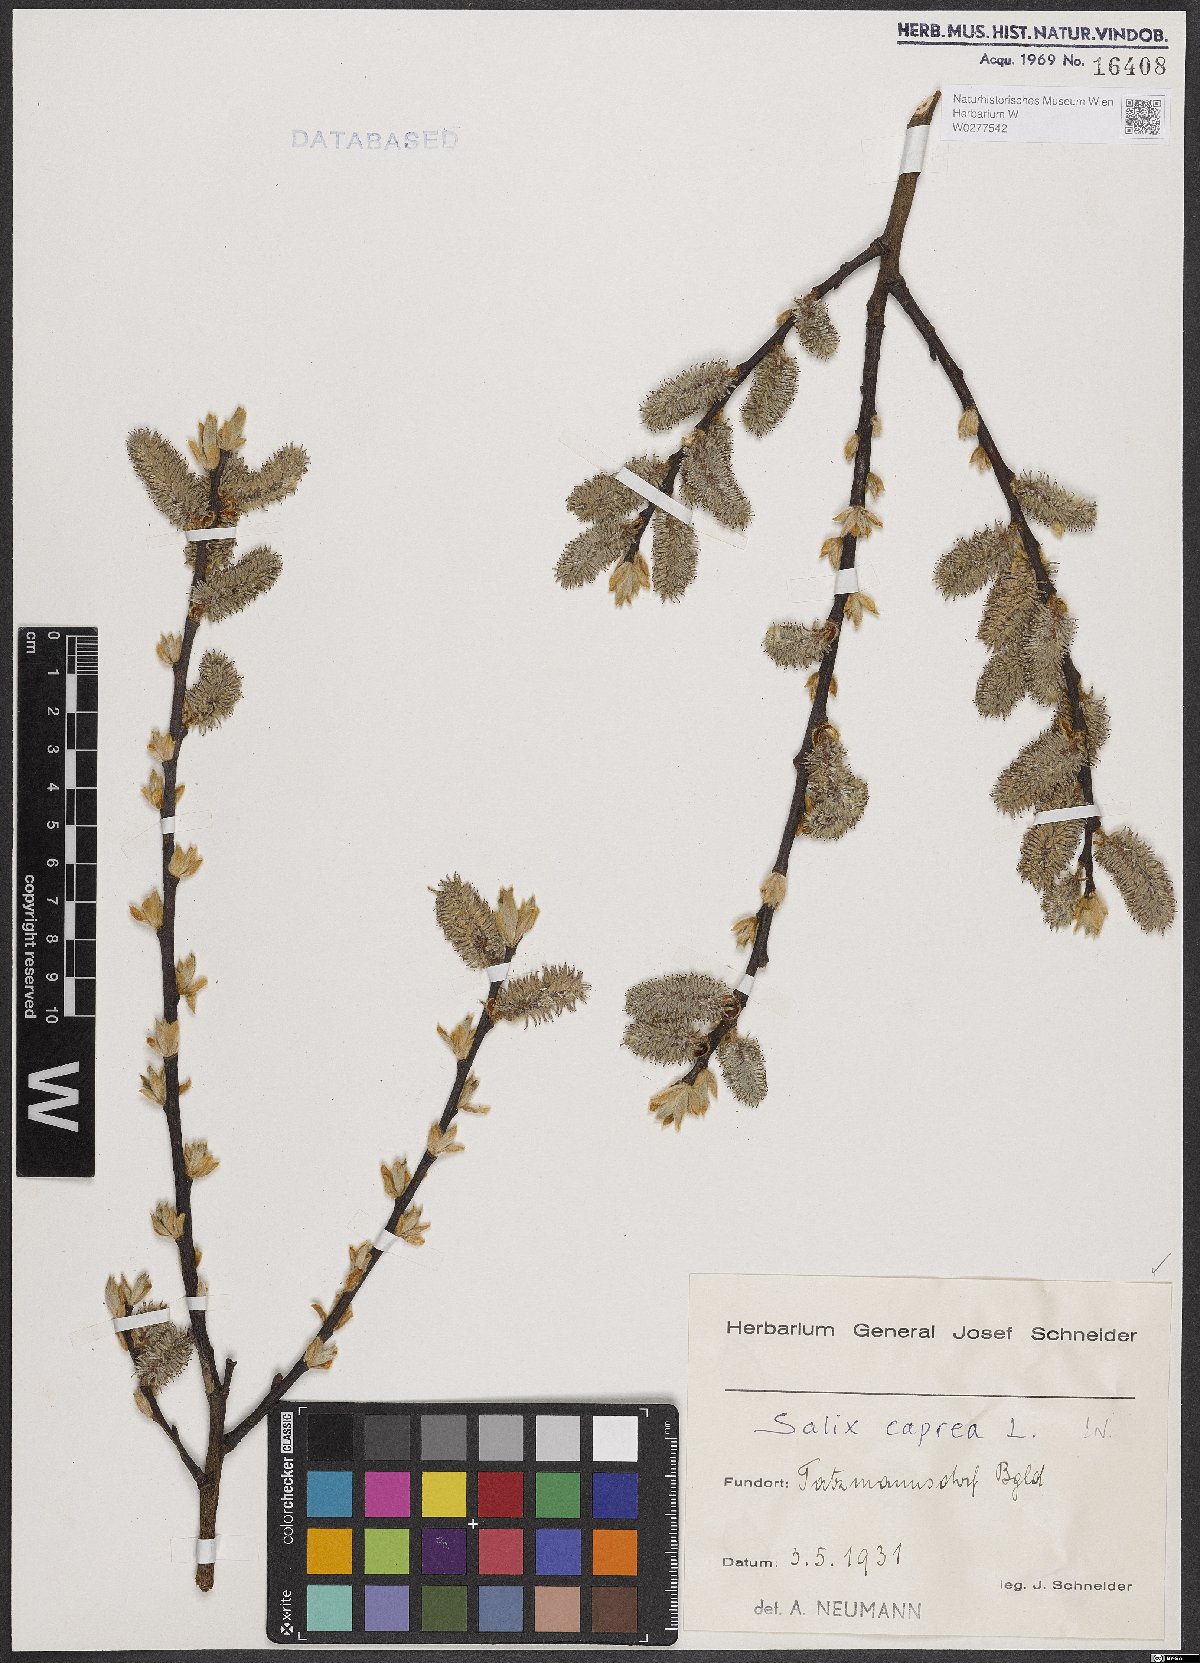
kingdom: Plantae
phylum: Tracheophyta
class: Magnoliopsida
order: Malpighiales
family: Salicaceae
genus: Salix
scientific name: Salix caprea
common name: Goat willow
